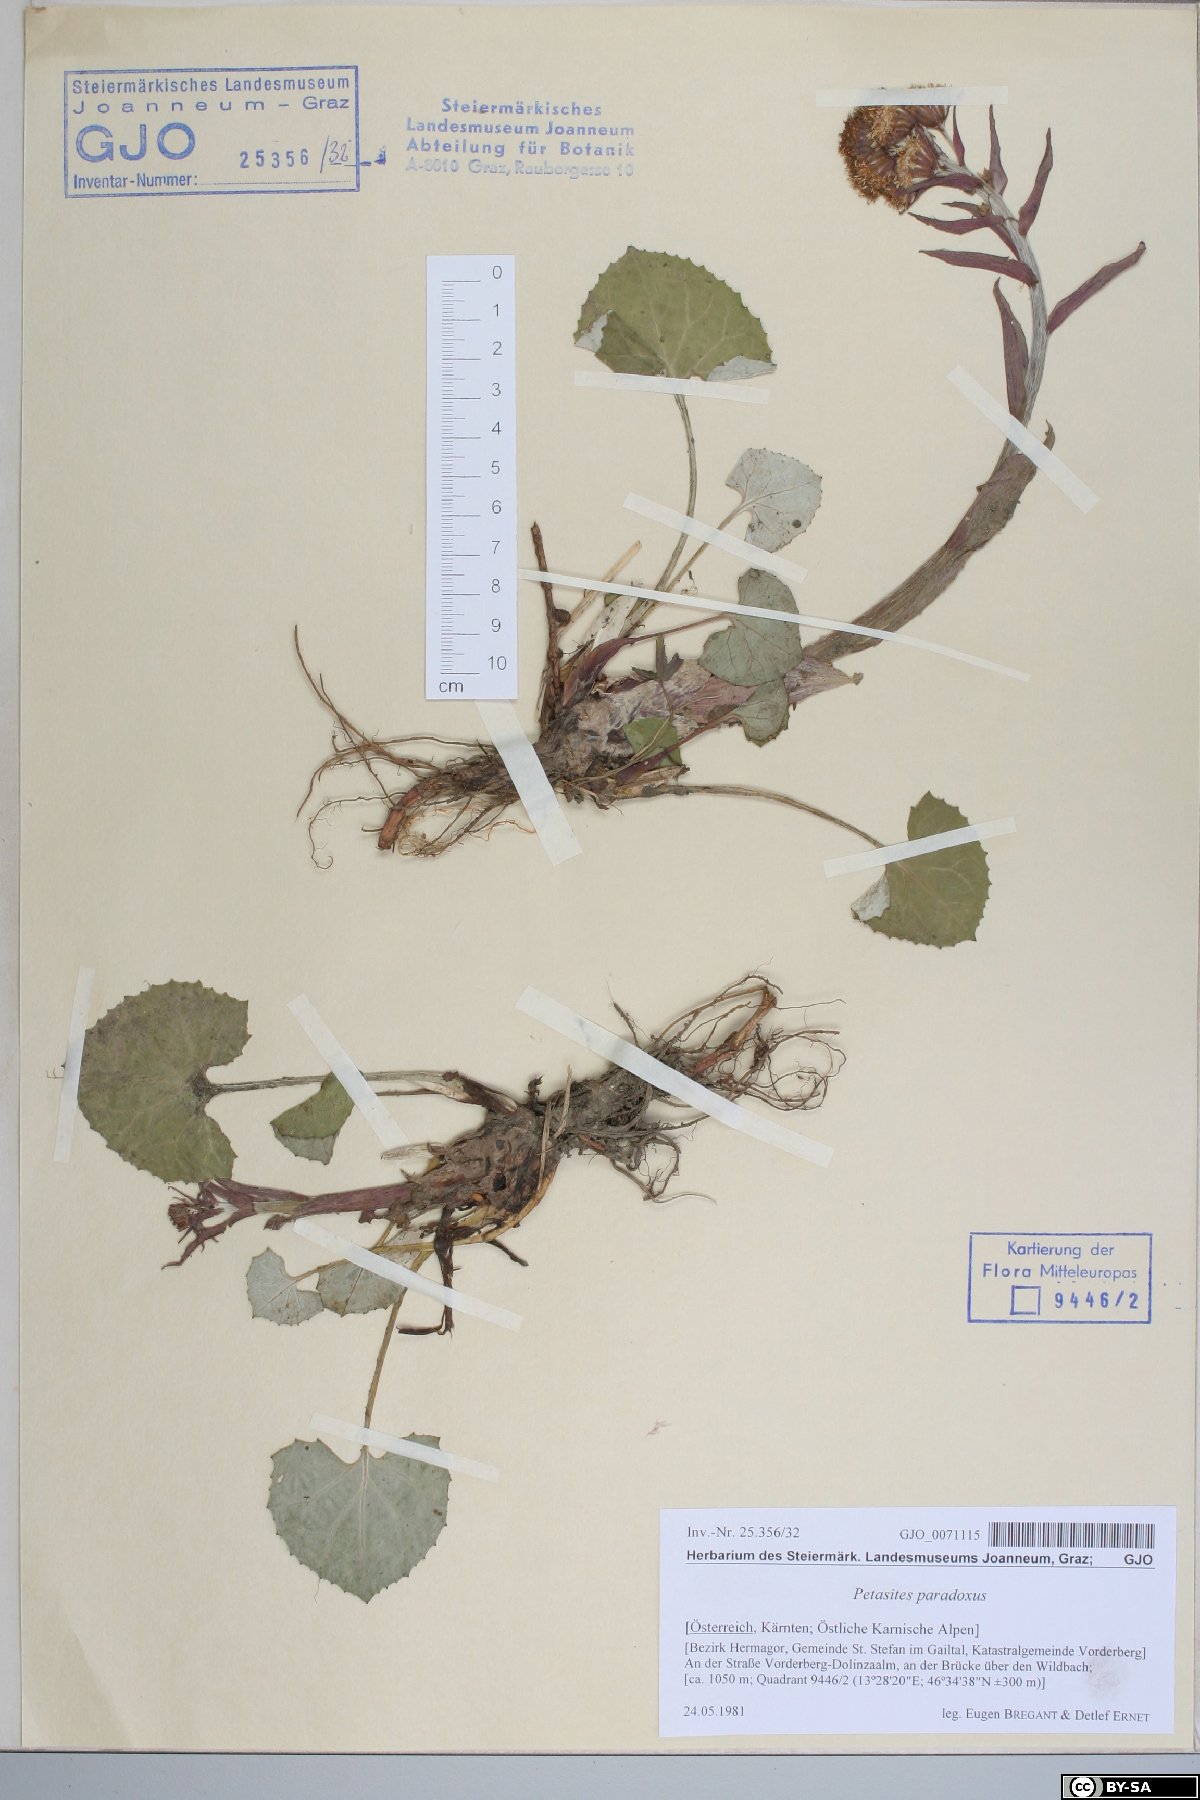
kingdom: Plantae
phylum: Tracheophyta
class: Magnoliopsida
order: Asterales
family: Asteraceae
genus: Petasites
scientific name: Petasites paradoxus
